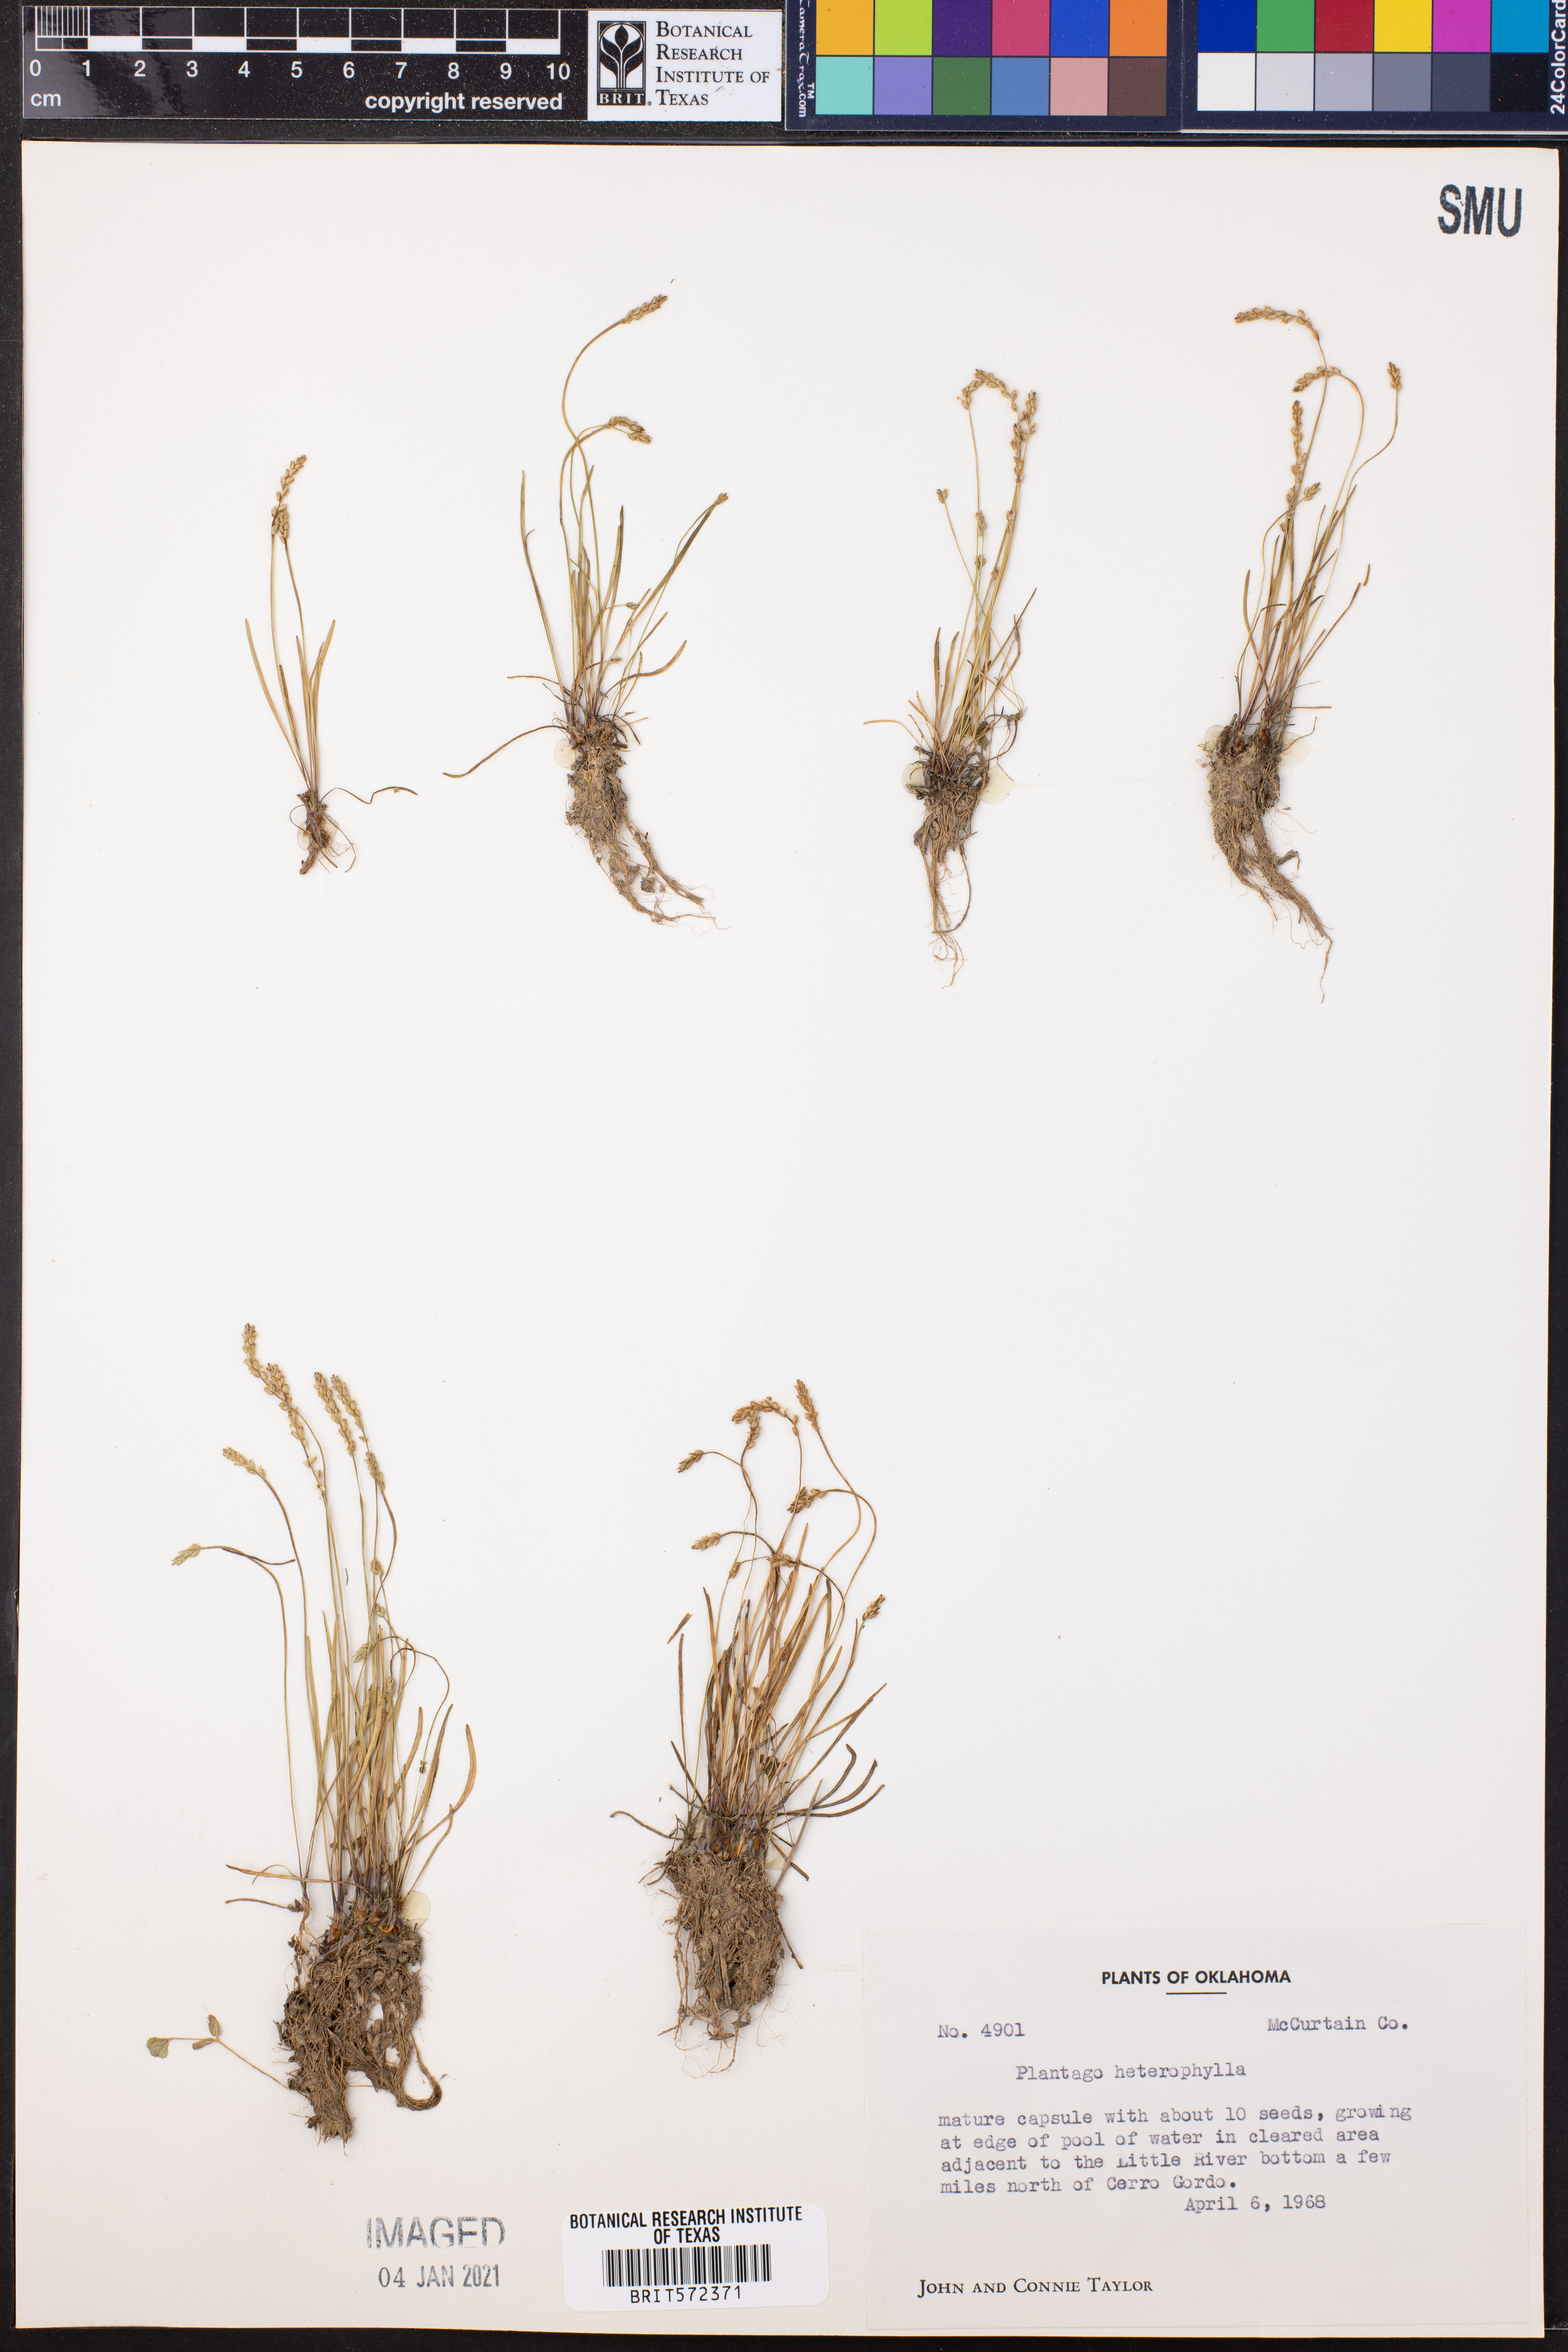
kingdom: Plantae
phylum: Tracheophyta
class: Magnoliopsida
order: Lamiales
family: Plantaginaceae
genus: Plantago
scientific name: Plantago heterophylla
